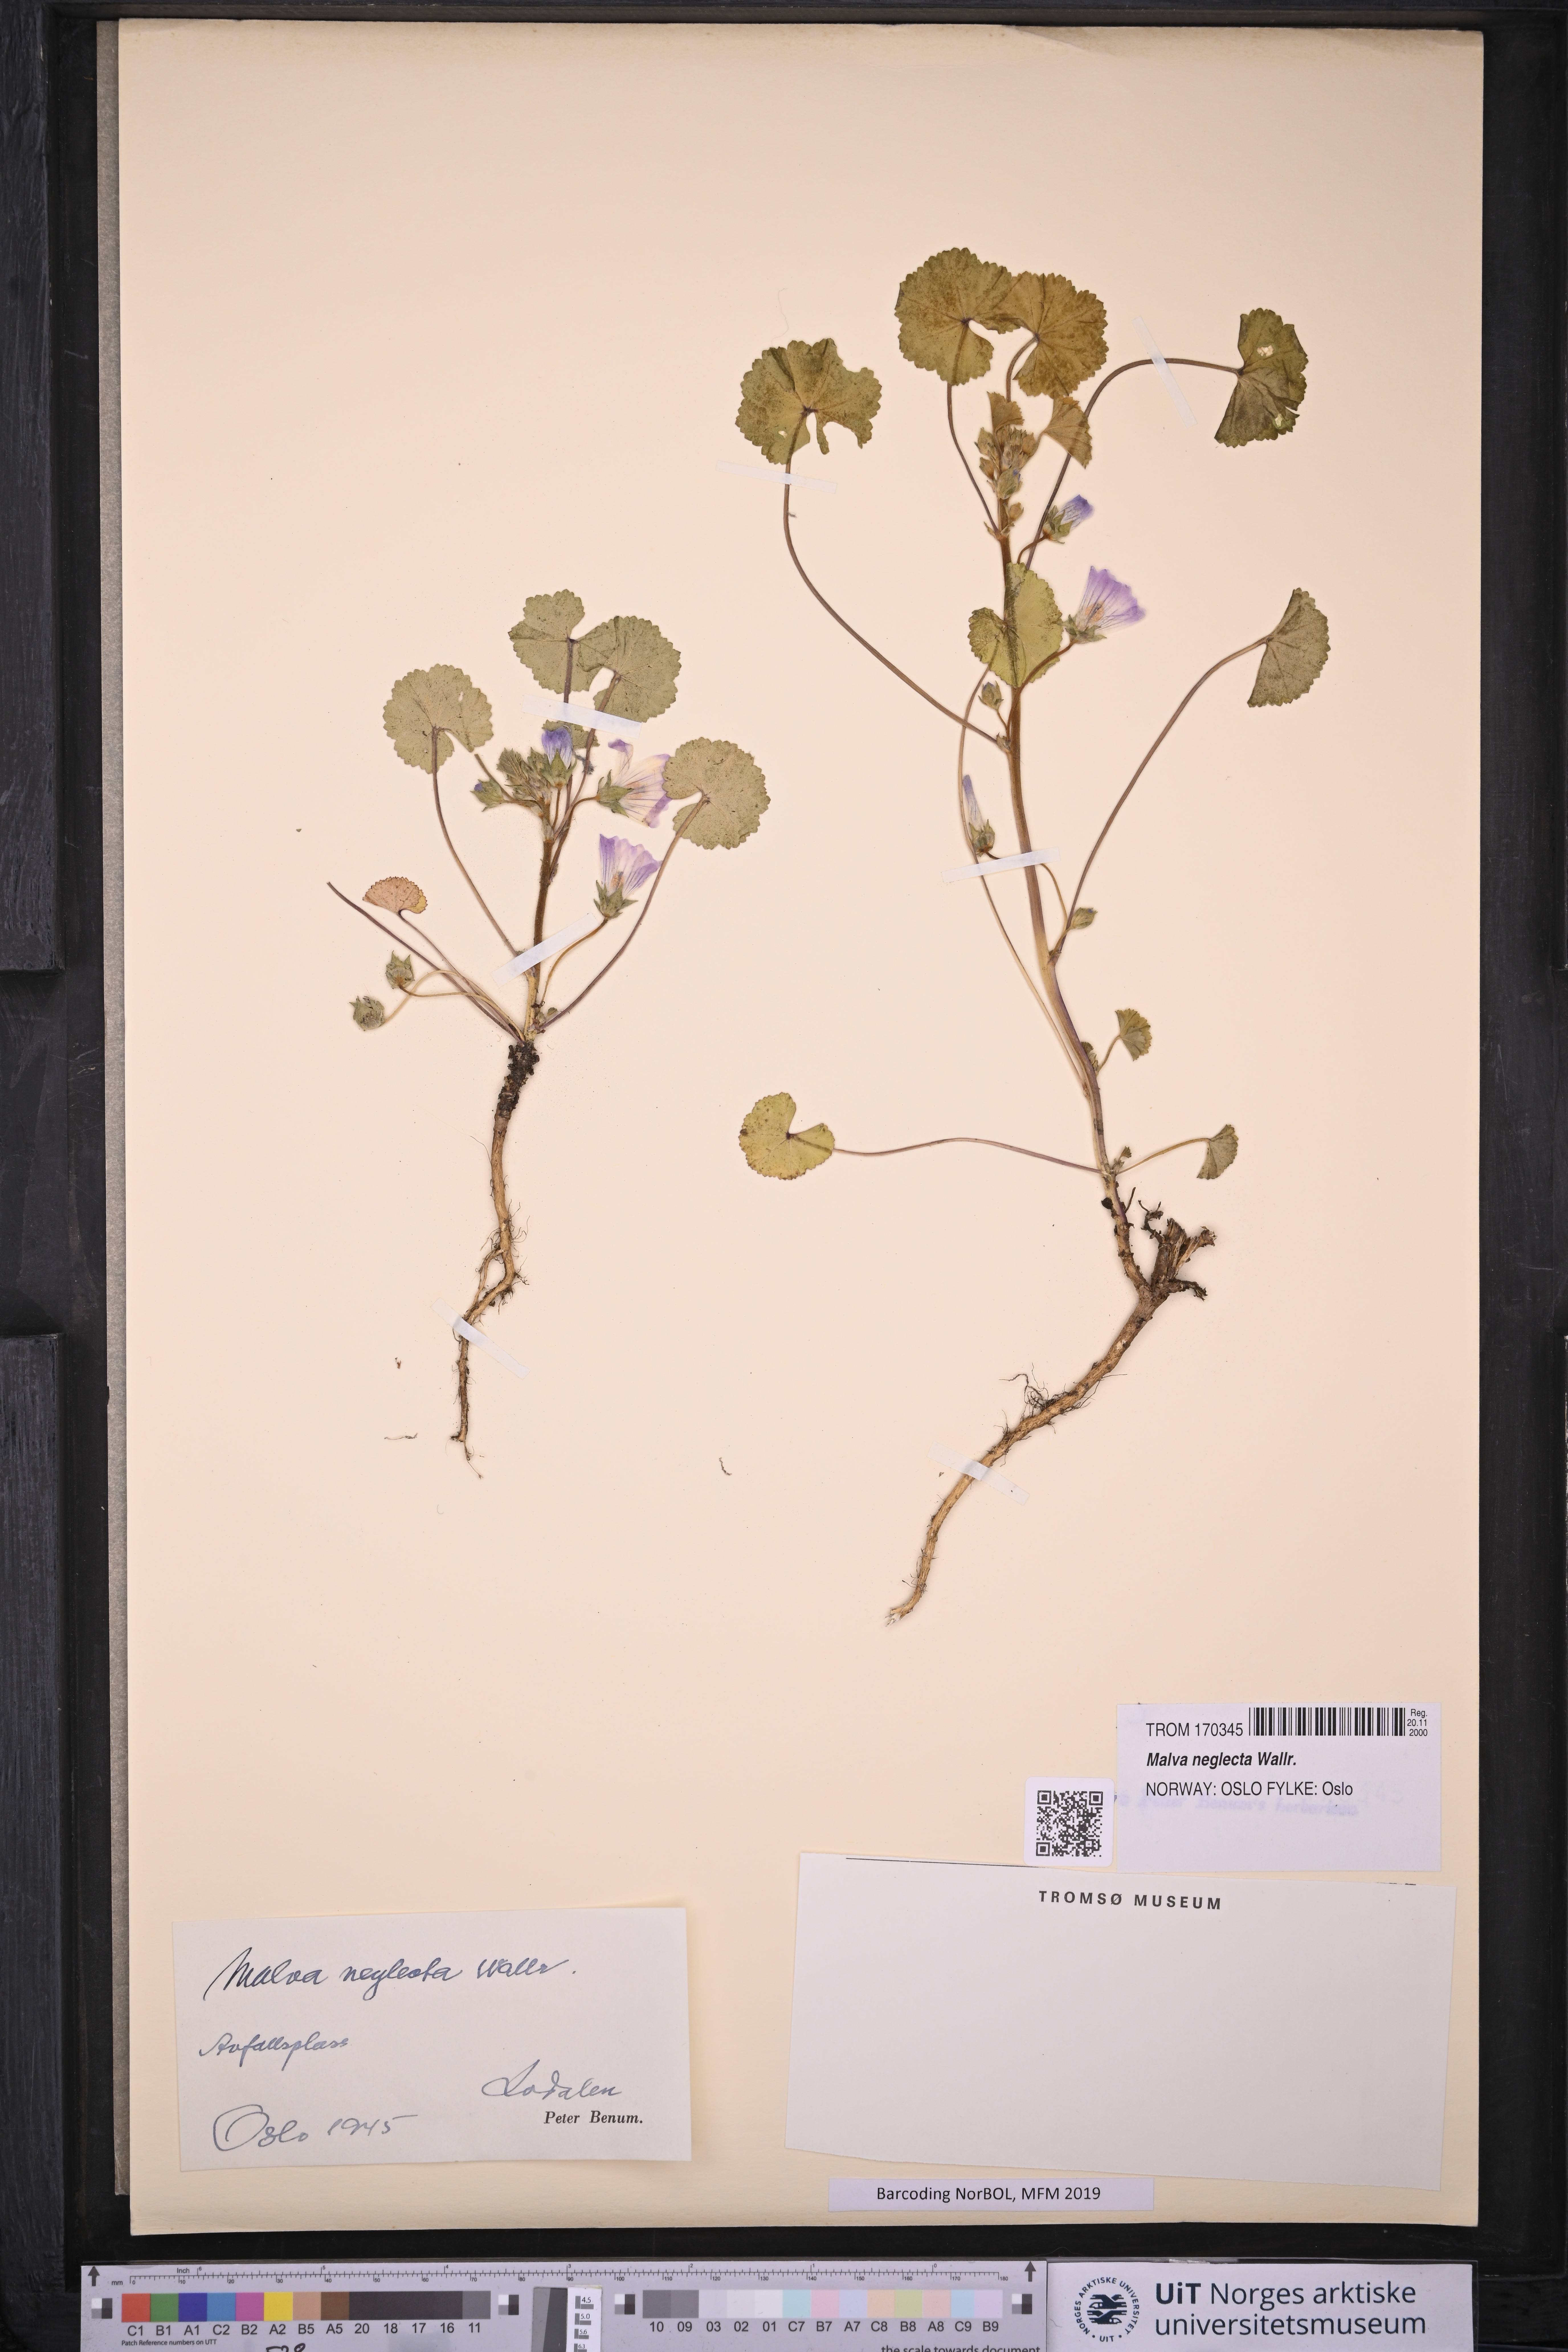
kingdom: Plantae
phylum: Tracheophyta
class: Magnoliopsida
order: Malvales
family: Malvaceae
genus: Malva
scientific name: Malva neglecta
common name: Common mallow
